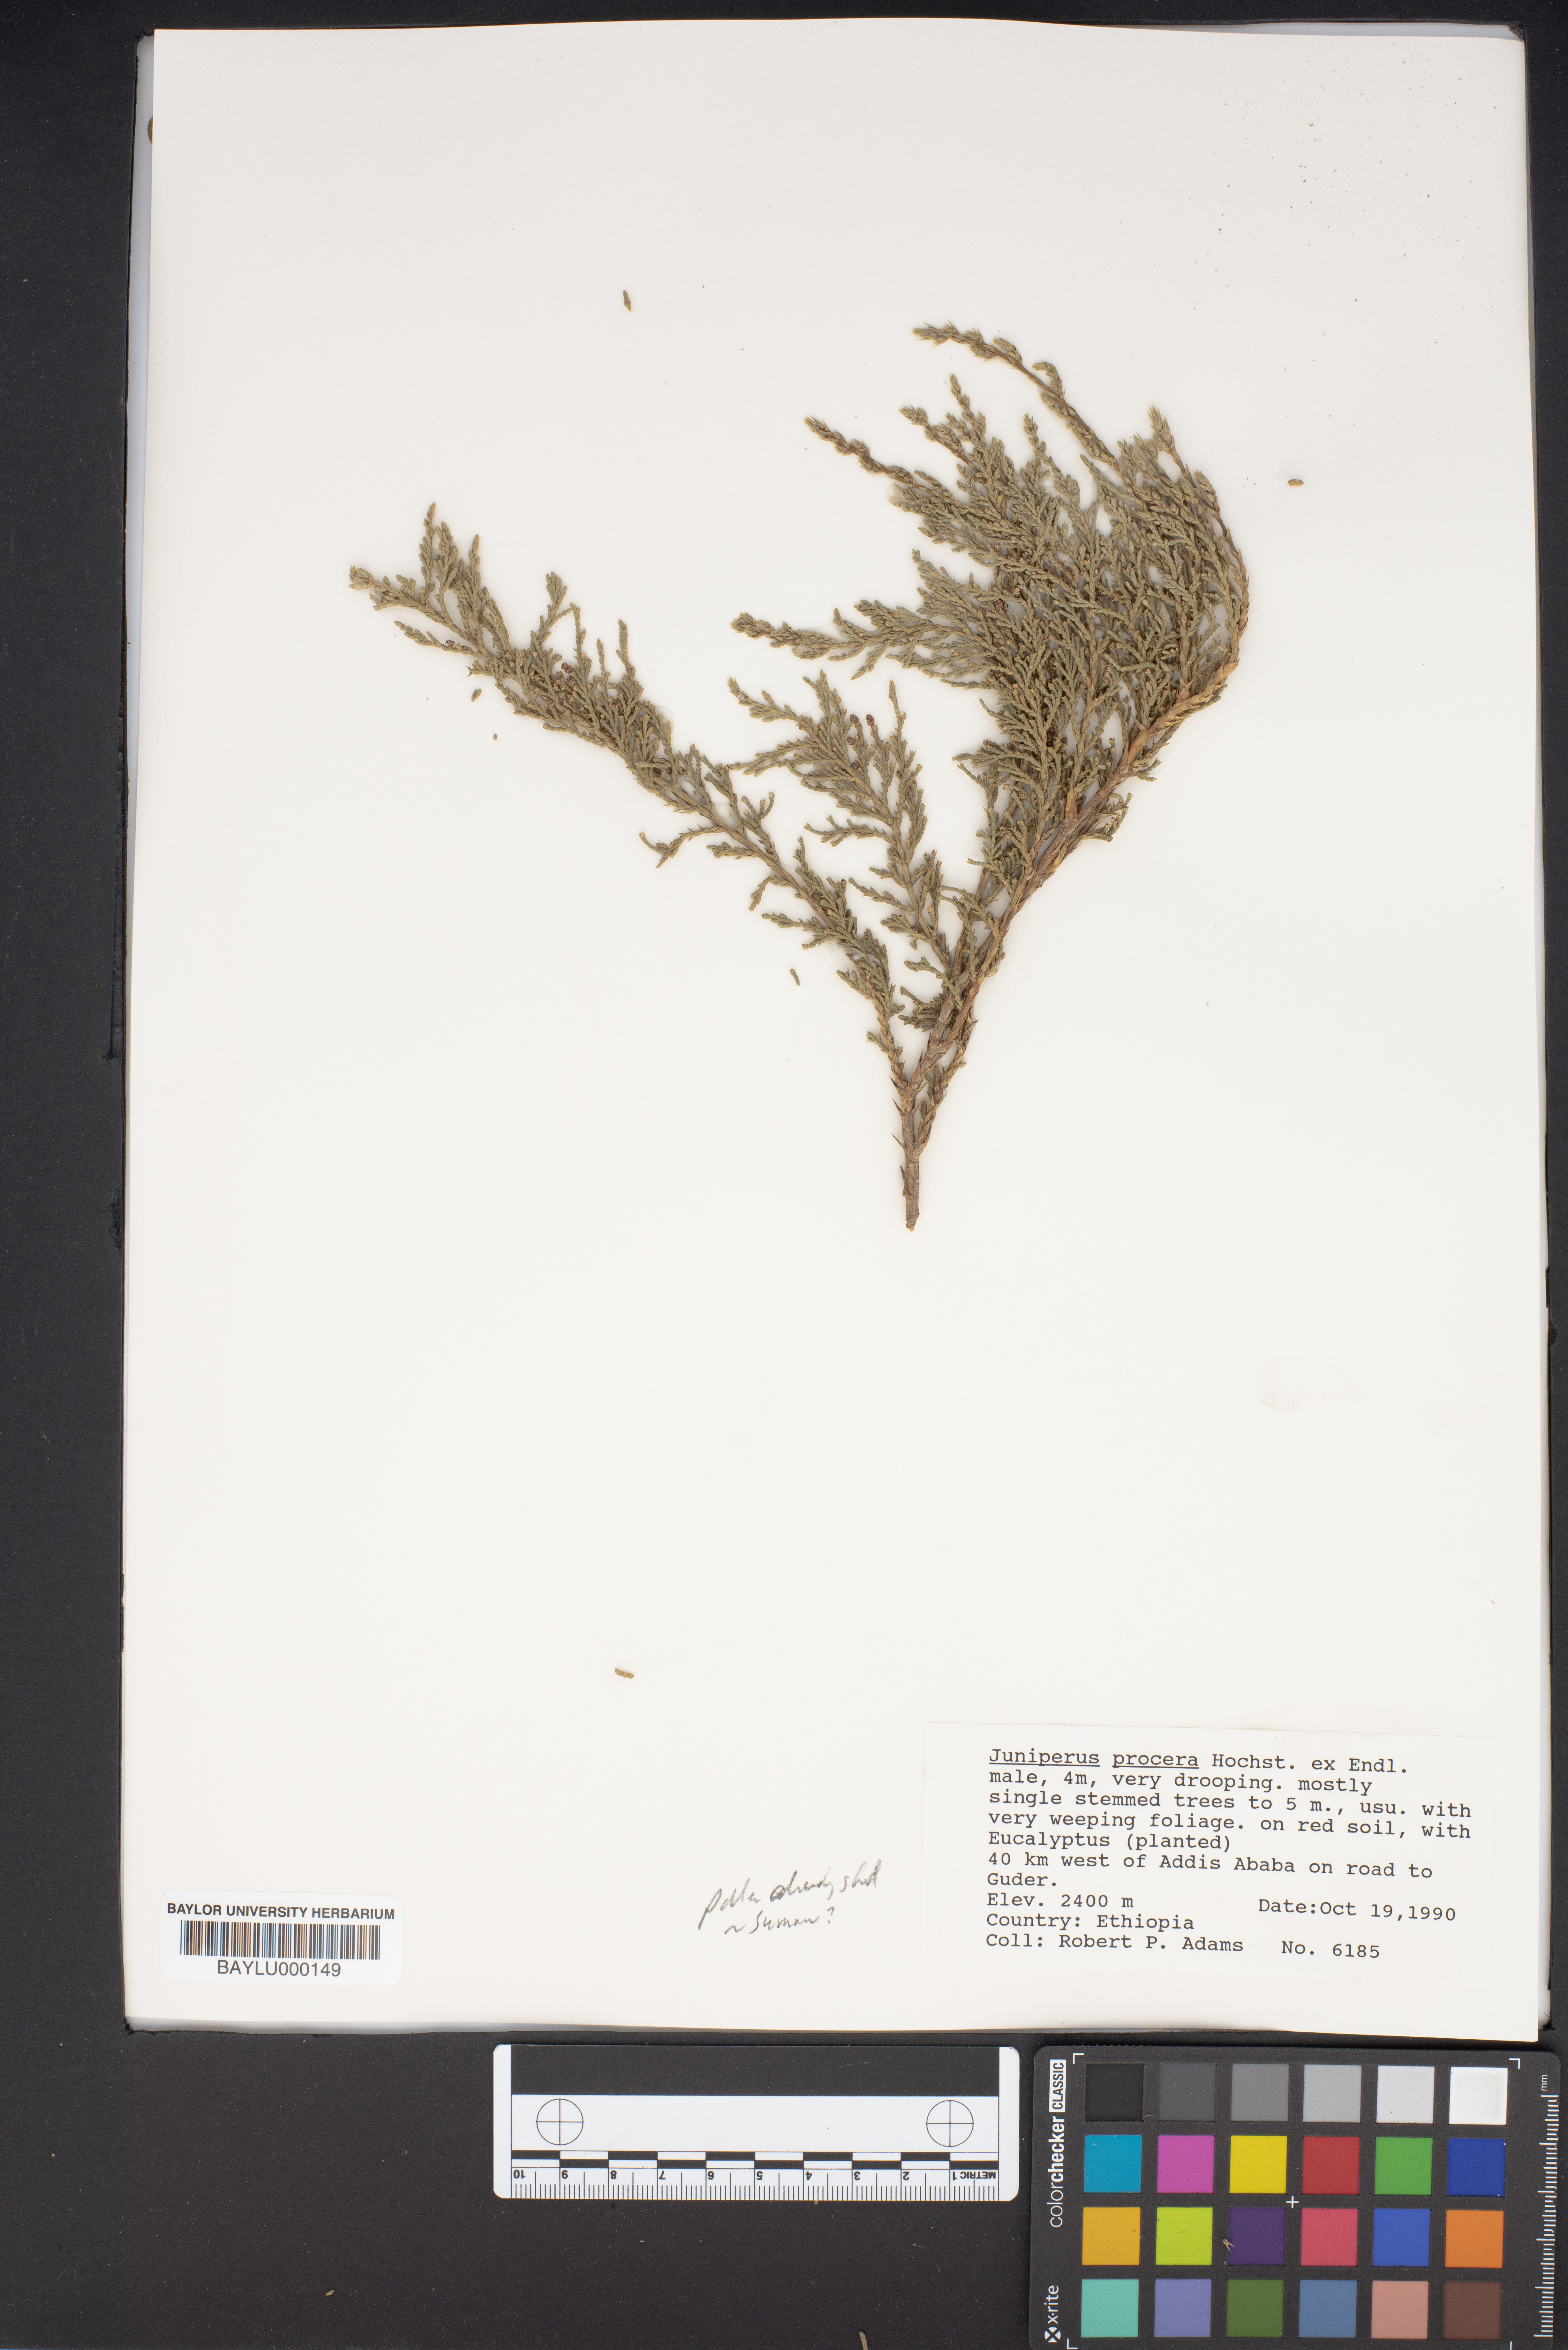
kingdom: Plantae
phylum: Tracheophyta
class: Pinopsida
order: Pinales
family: Cupressaceae
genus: Juniperus
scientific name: Juniperus procera
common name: African juniper
